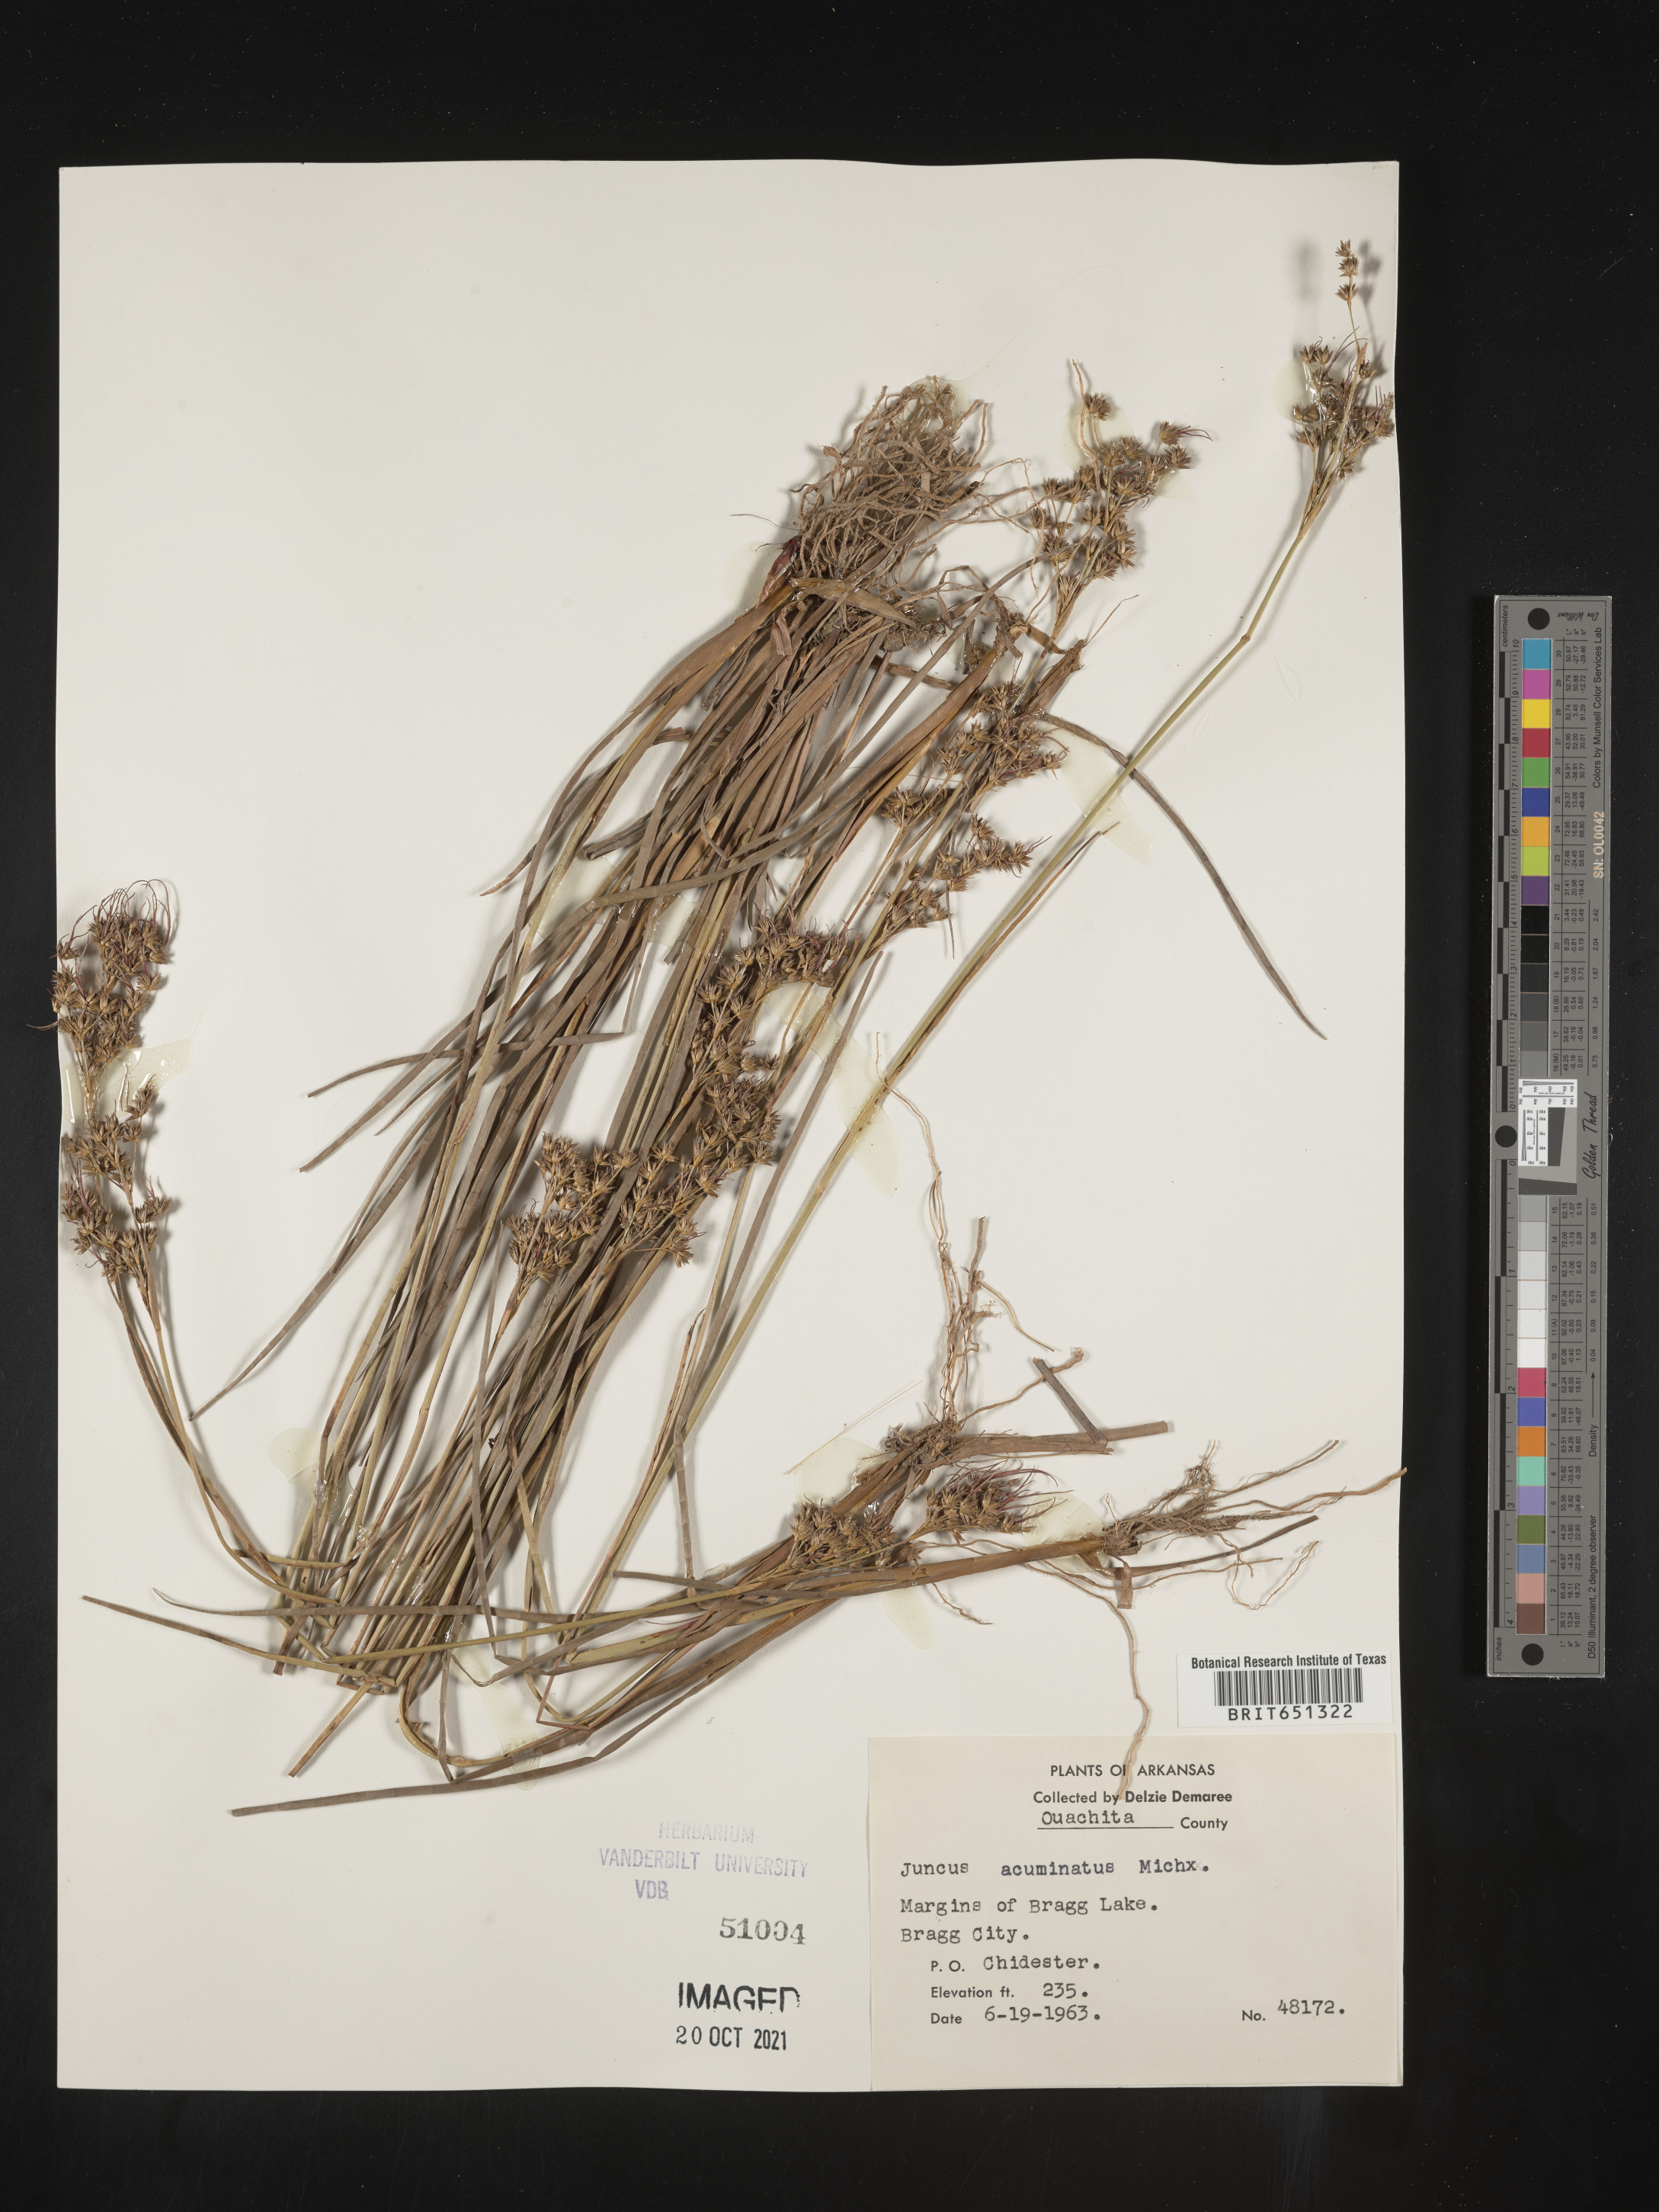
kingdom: Plantae
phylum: Tracheophyta
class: Liliopsida
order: Poales
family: Juncaceae
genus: Juncus
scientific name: Juncus acuminatus
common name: Knotty-leaved rush
